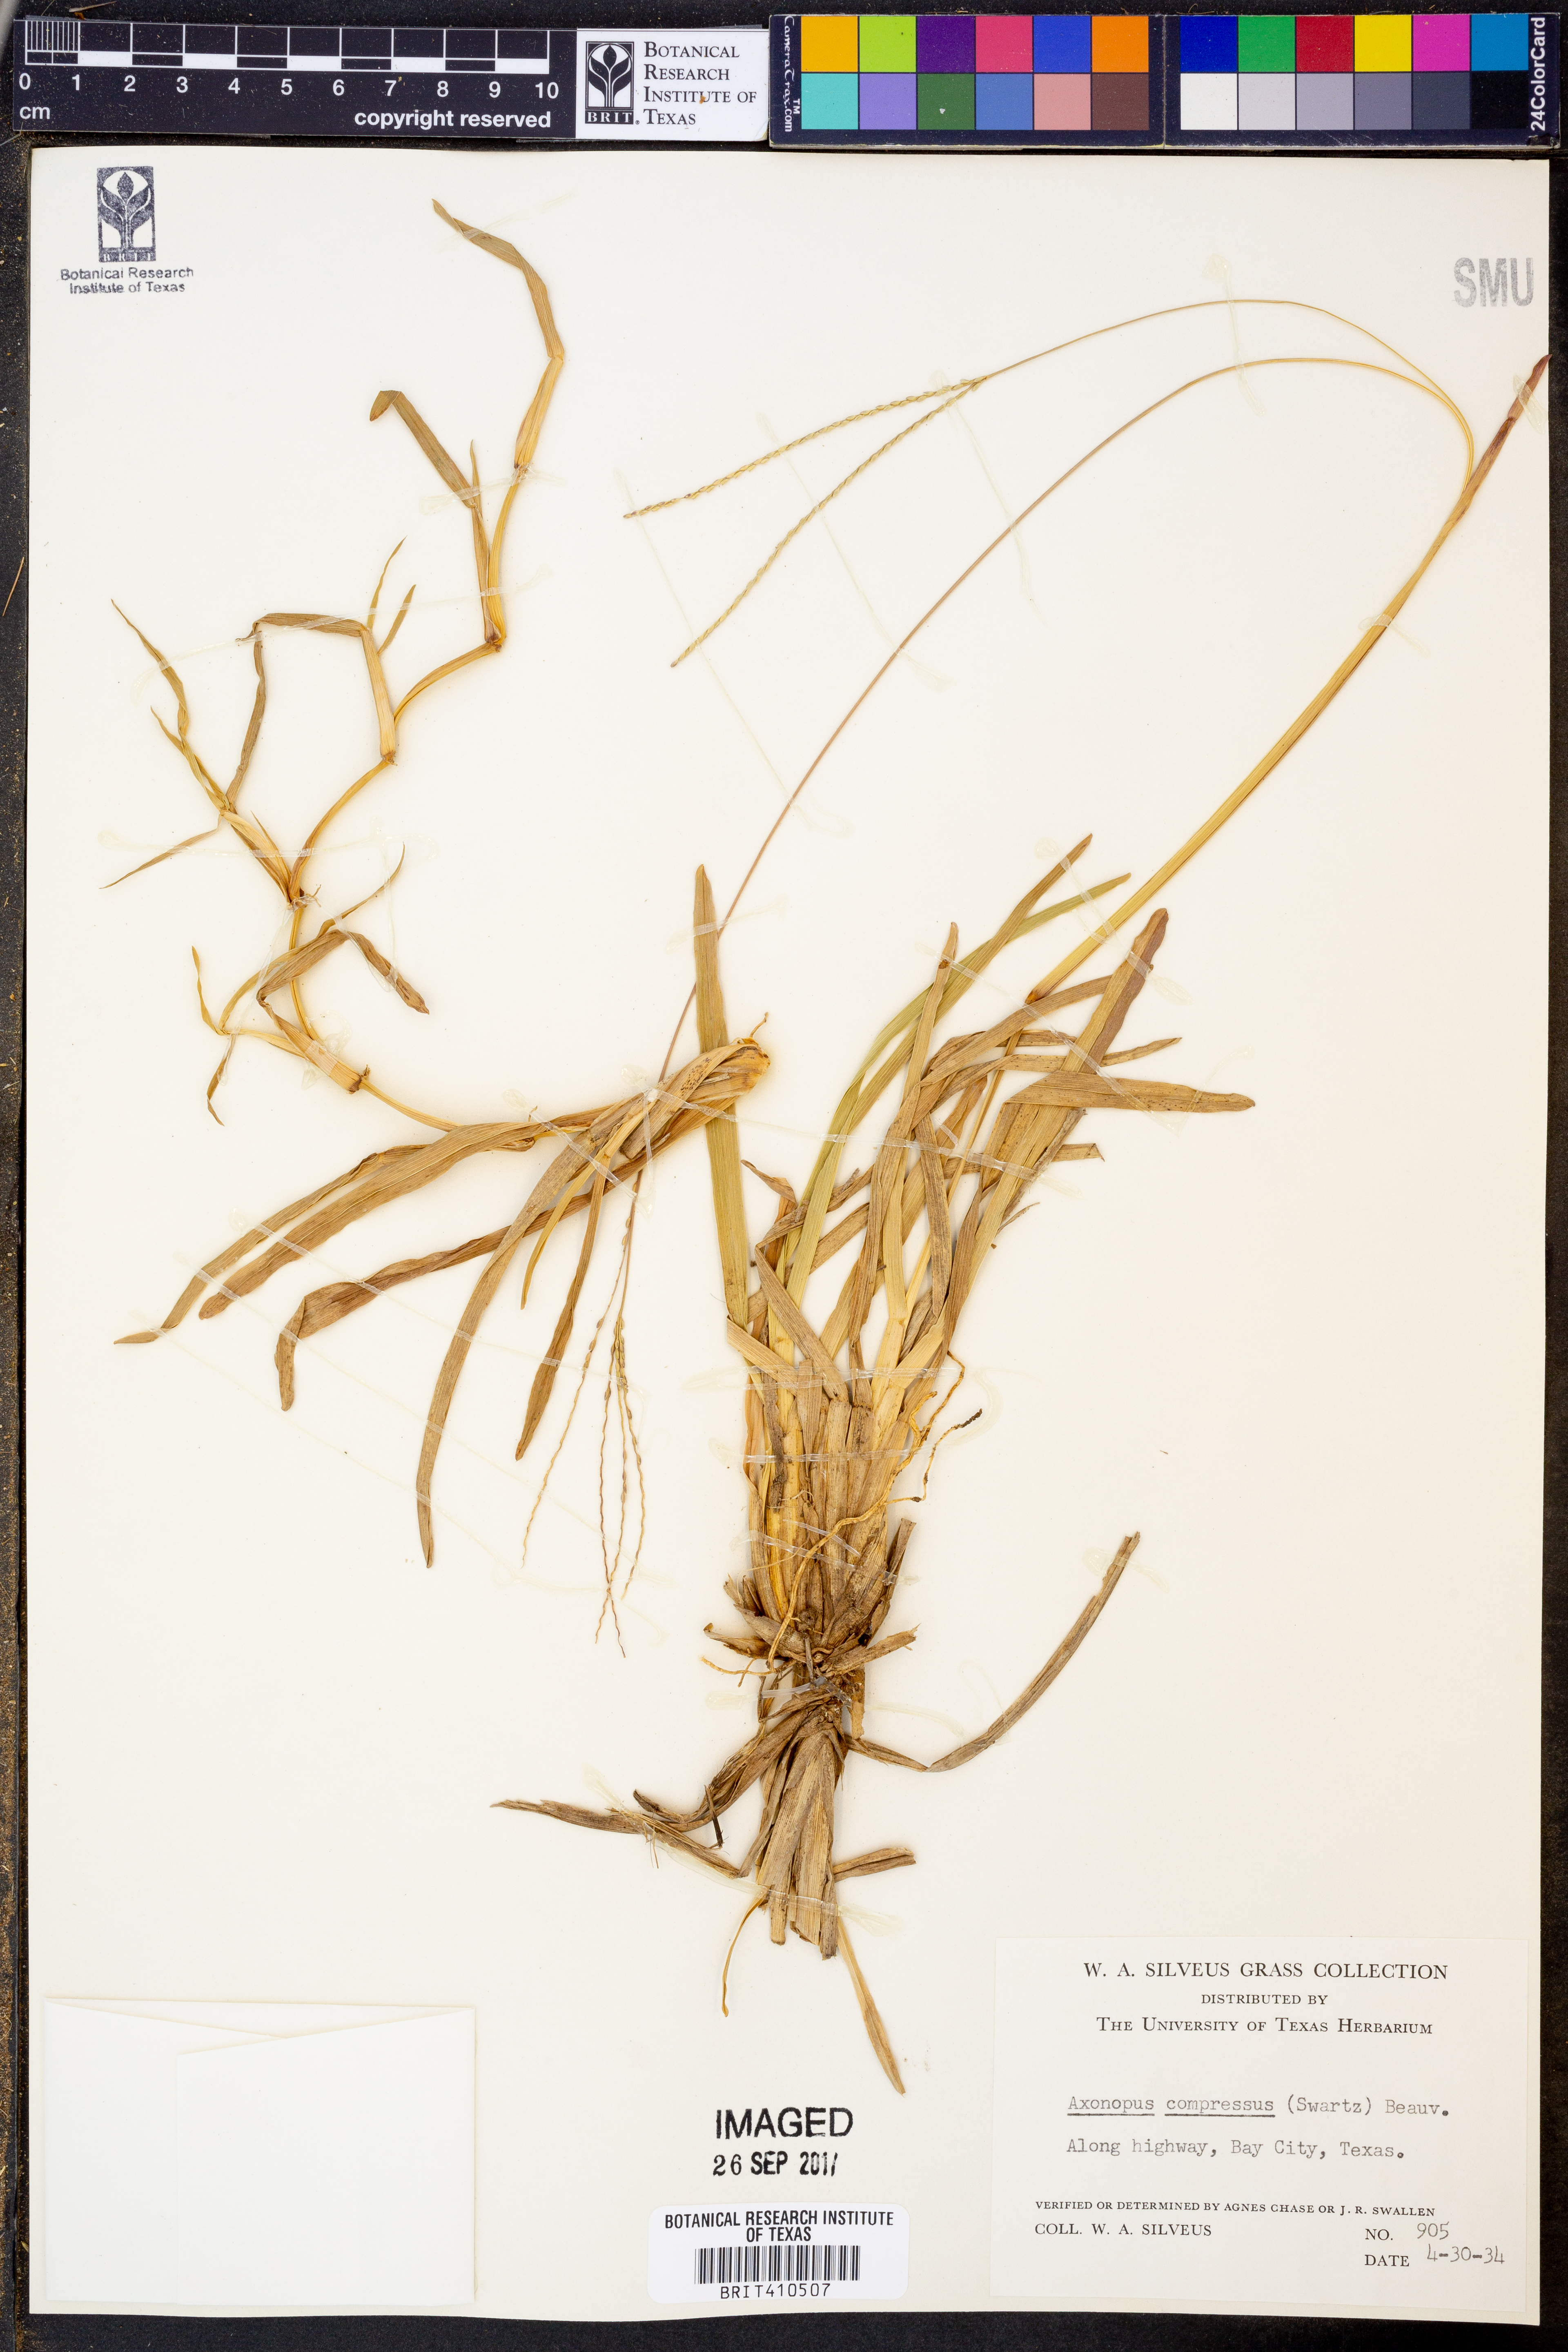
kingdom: Plantae
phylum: Tracheophyta
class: Liliopsida
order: Poales
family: Poaceae
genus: Axonopus
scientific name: Axonopus compressus
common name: American carpet grass
